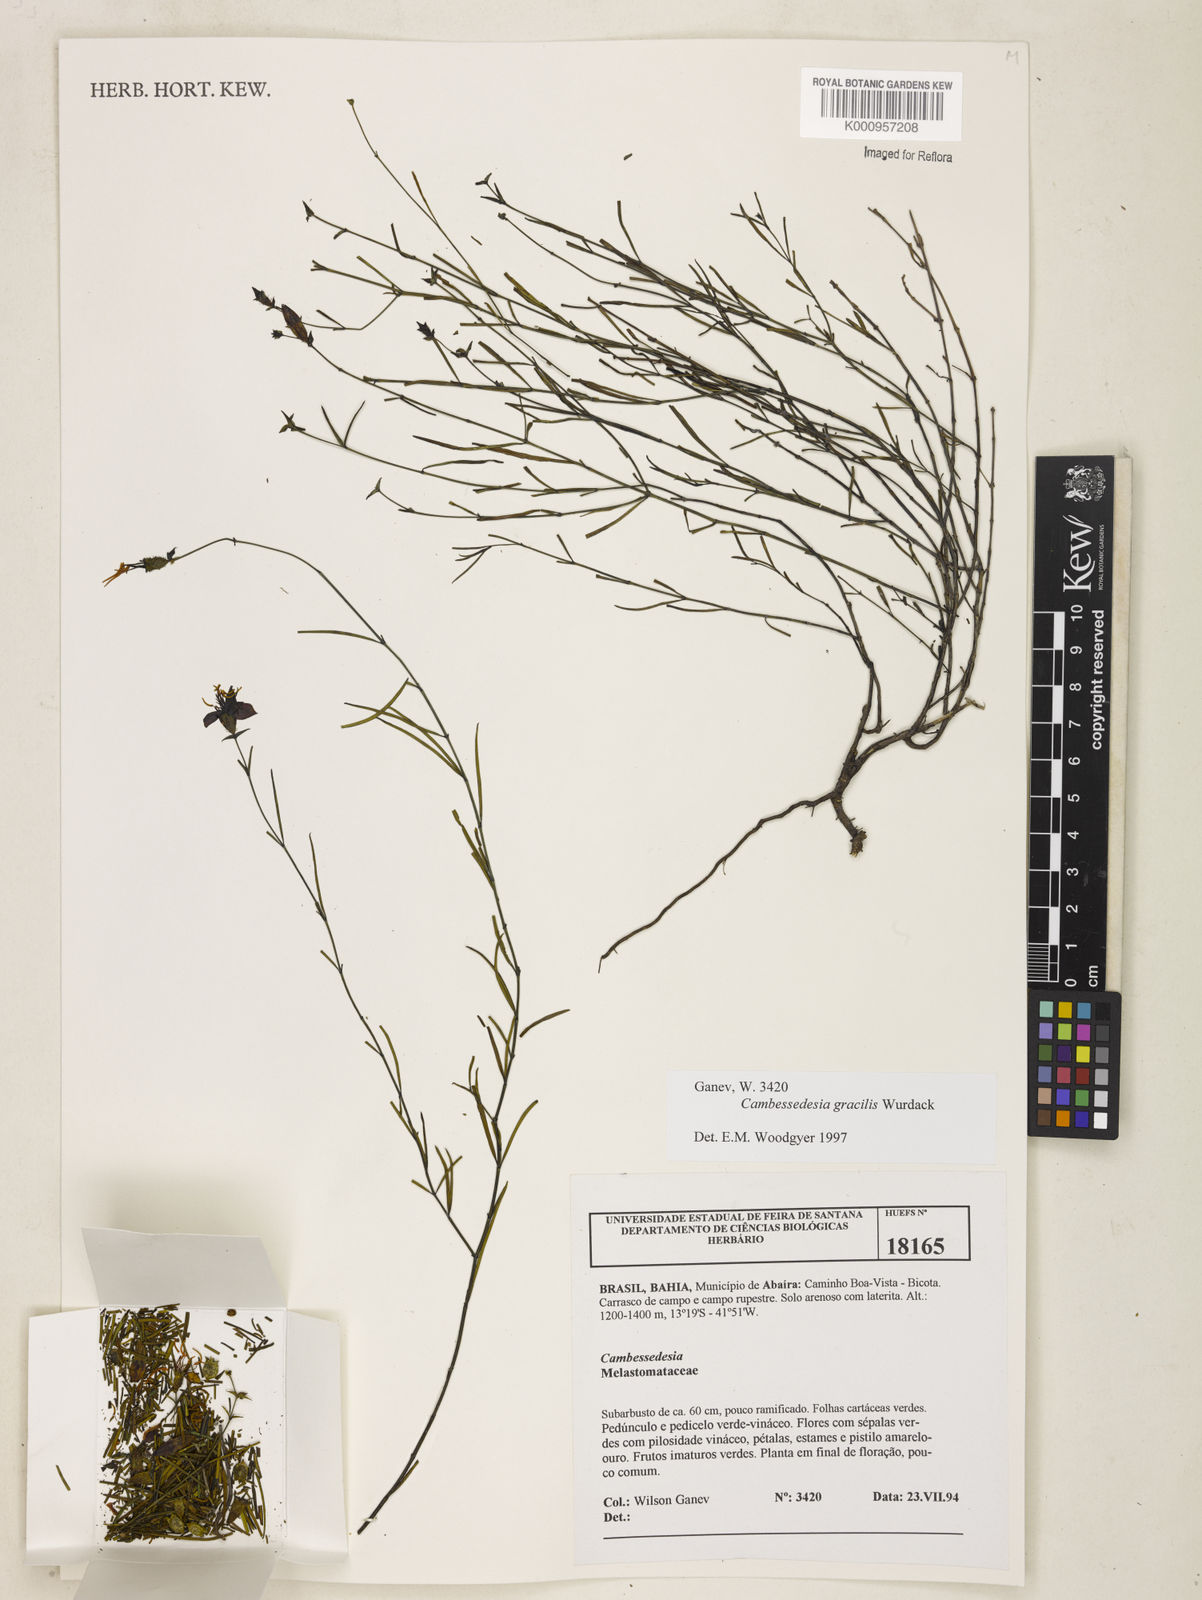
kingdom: Plantae
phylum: Tracheophyta
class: Magnoliopsida
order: Myrtales
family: Melastomataceae
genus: Cambessedesia
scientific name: Cambessedesia gracilis
